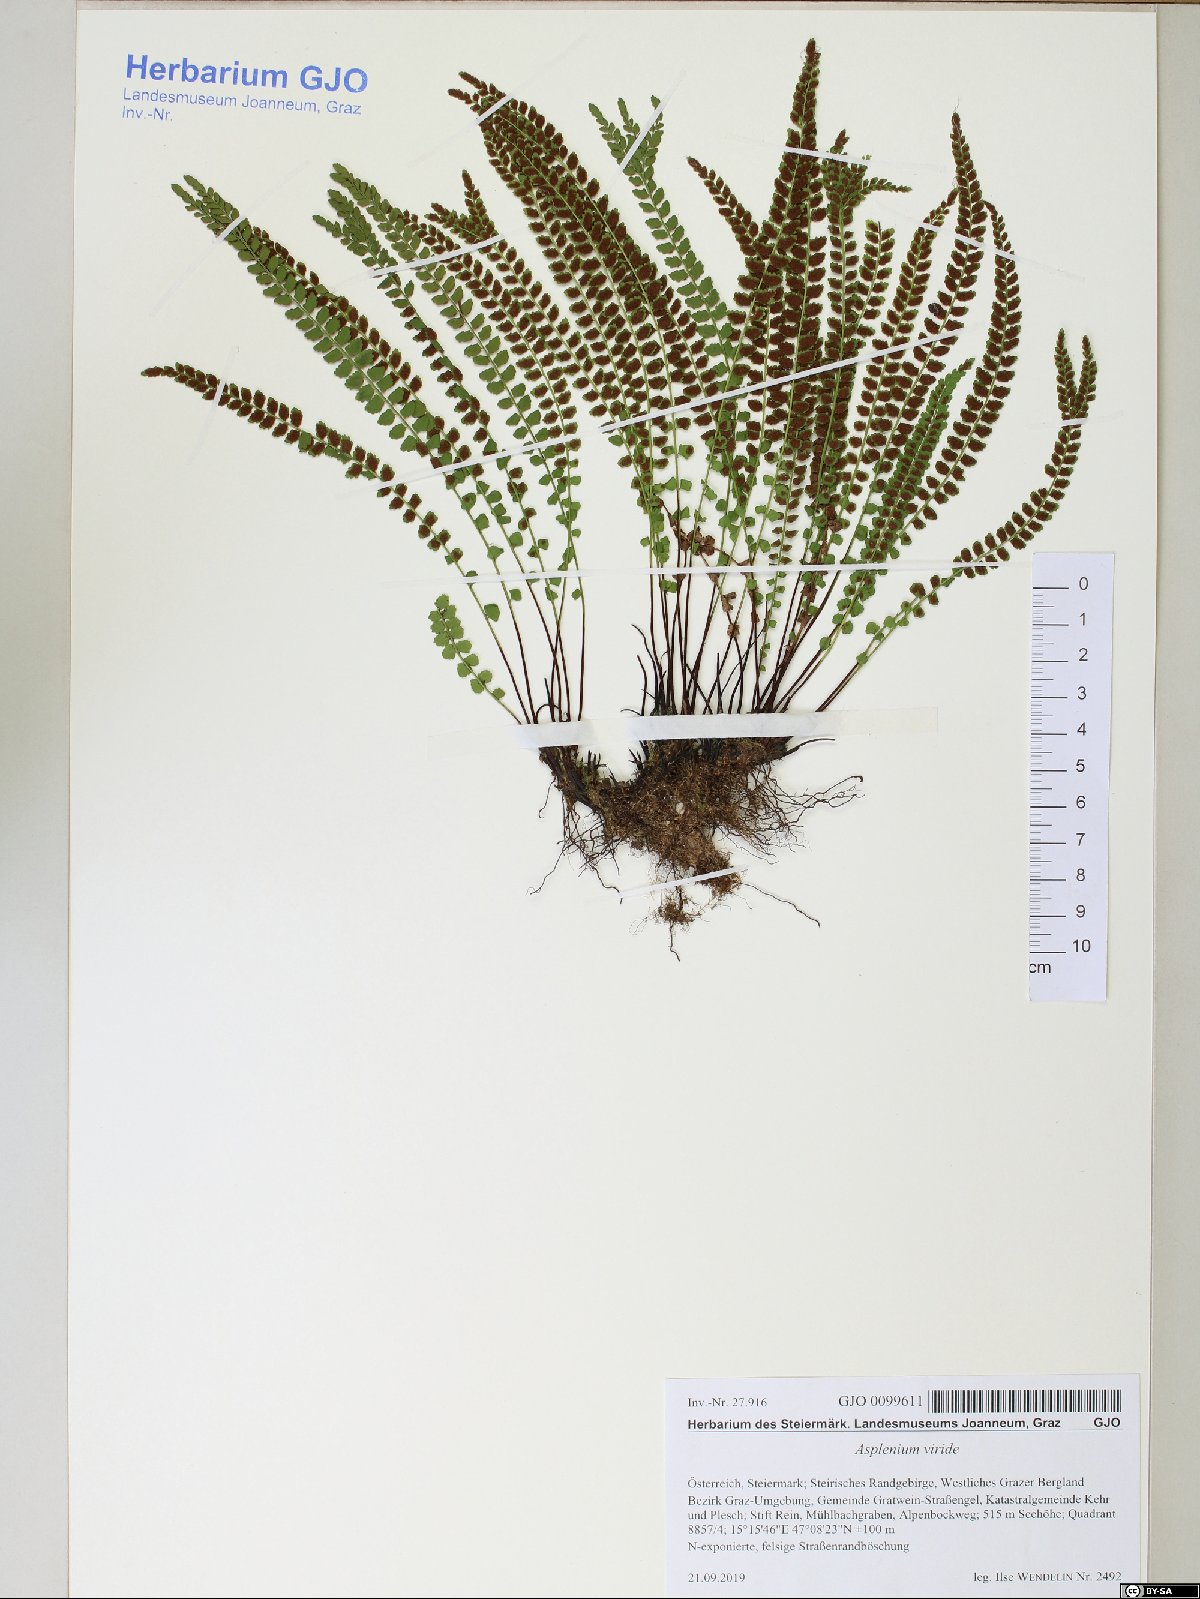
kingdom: Plantae
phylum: Tracheophyta
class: Polypodiopsida
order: Polypodiales
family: Aspleniaceae
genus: Asplenium
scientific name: Asplenium viride
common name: Green spleenwort
